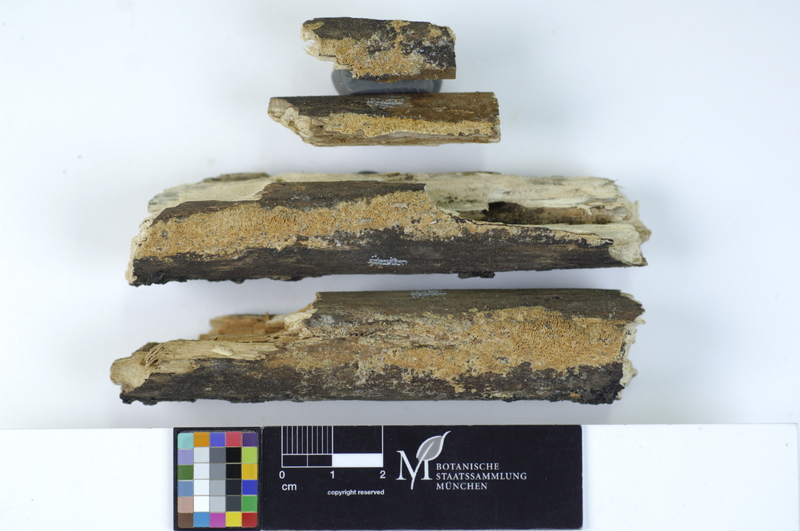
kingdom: Fungi
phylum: Basidiomycota
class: Agaricomycetes
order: Hymenochaetales
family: Schizoporaceae
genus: Xylodon
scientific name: Xylodon flaviporus
